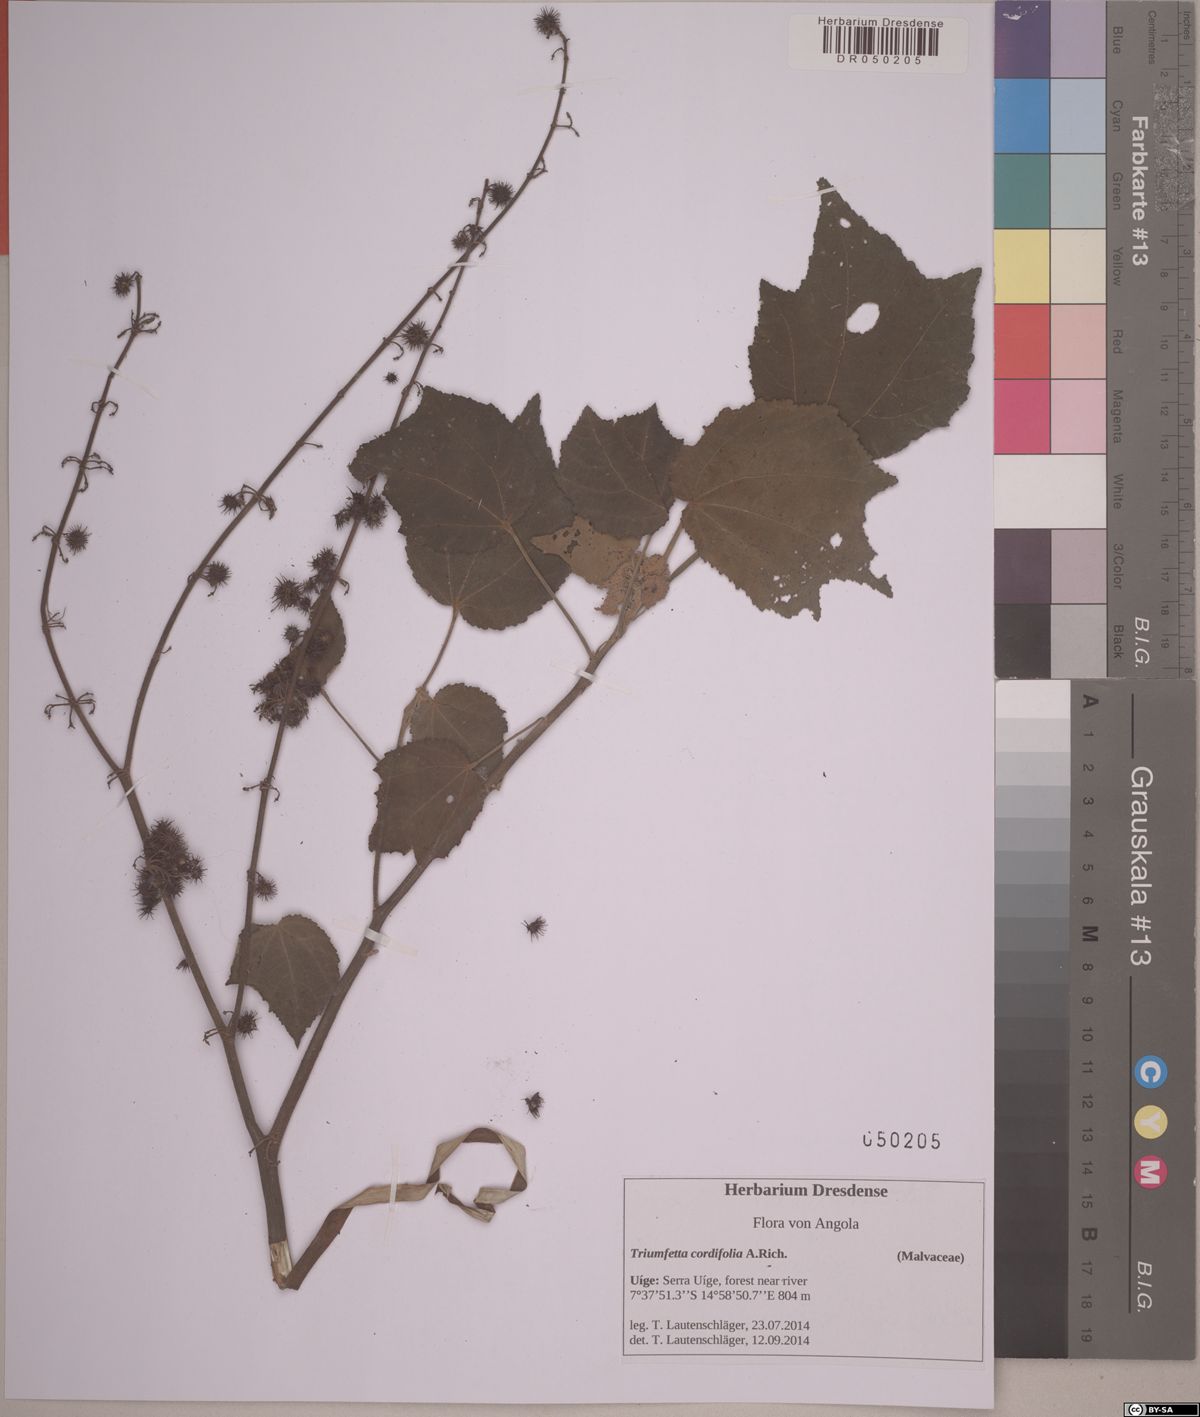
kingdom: Plantae
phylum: Tracheophyta
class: Magnoliopsida
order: Malvales
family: Malvaceae
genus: Triumfetta
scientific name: Triumfetta cordifolia
